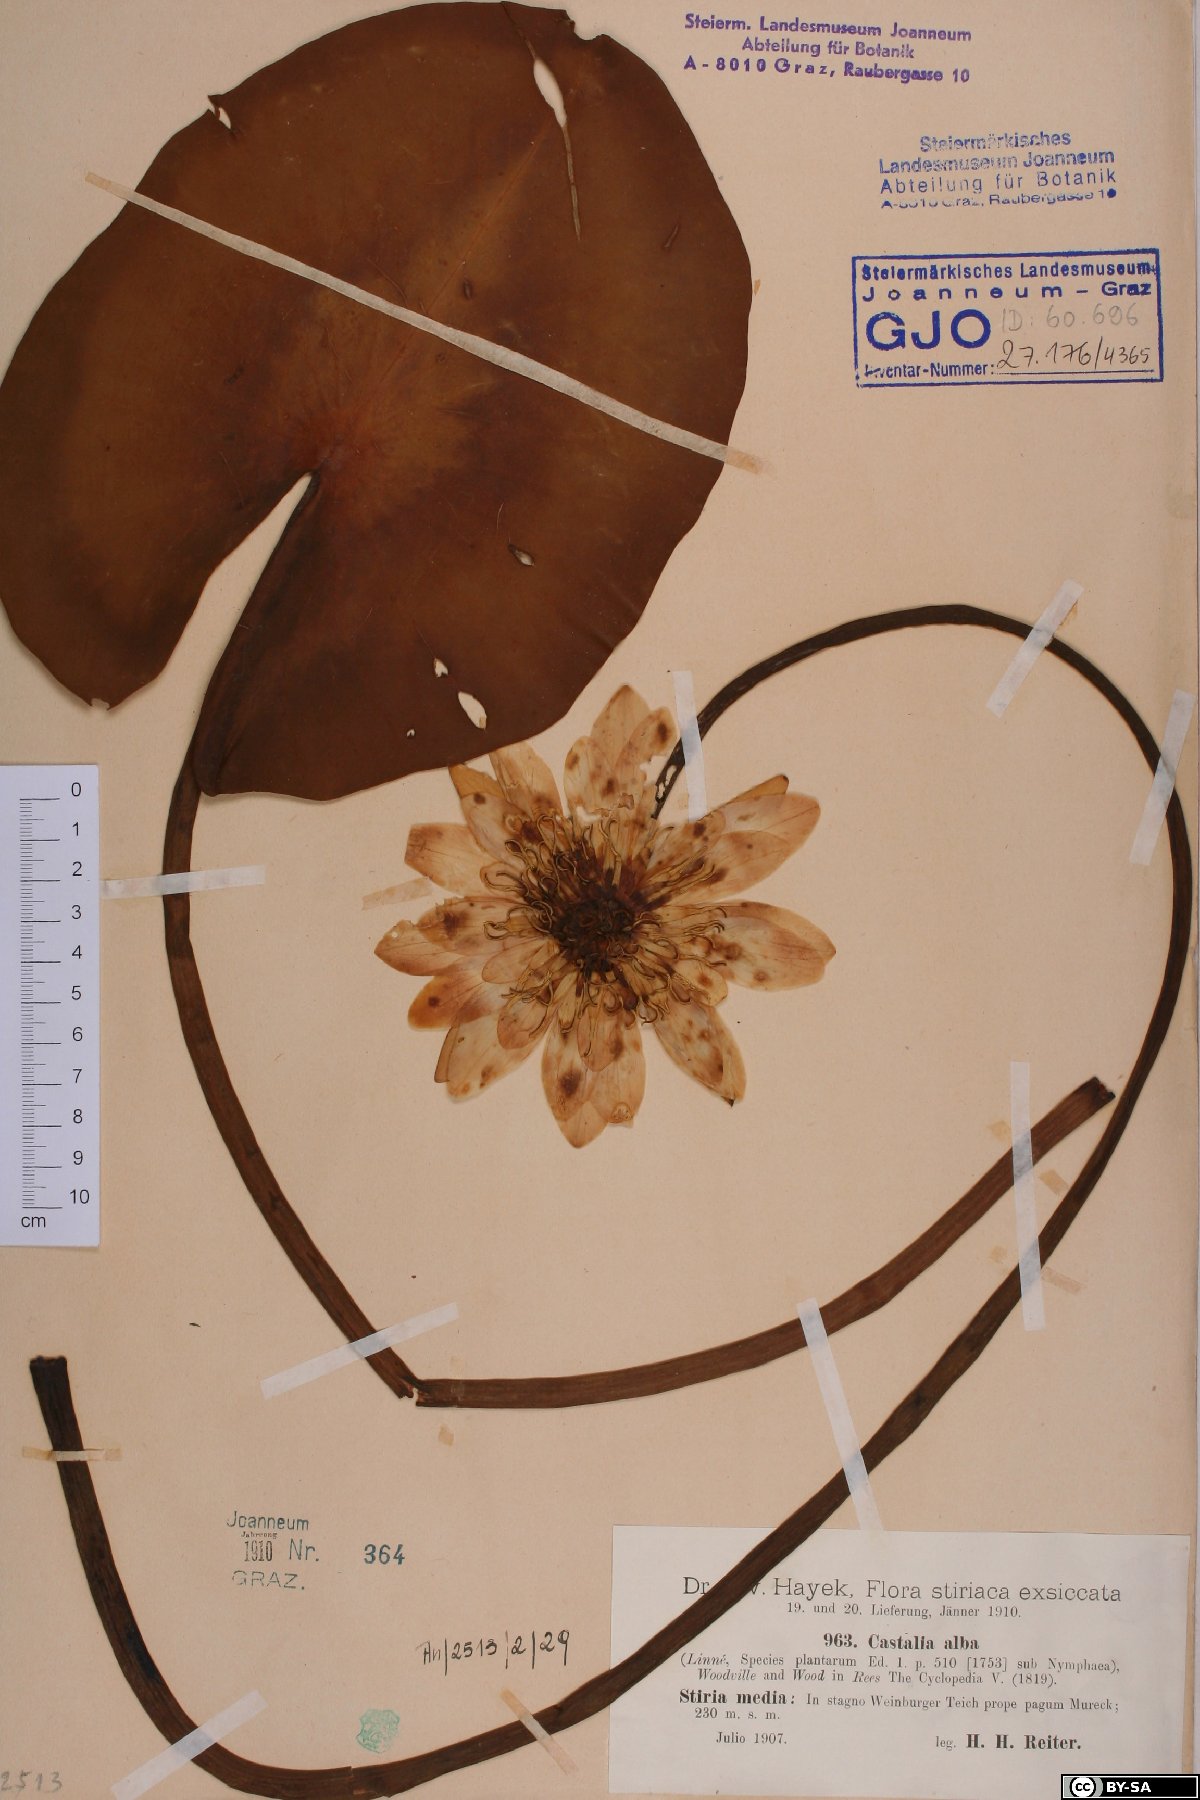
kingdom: Plantae
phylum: Tracheophyta
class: Magnoliopsida
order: Nymphaeales
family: Nymphaeaceae
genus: Nymphaea
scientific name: Nymphaea alba
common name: White water-lily
